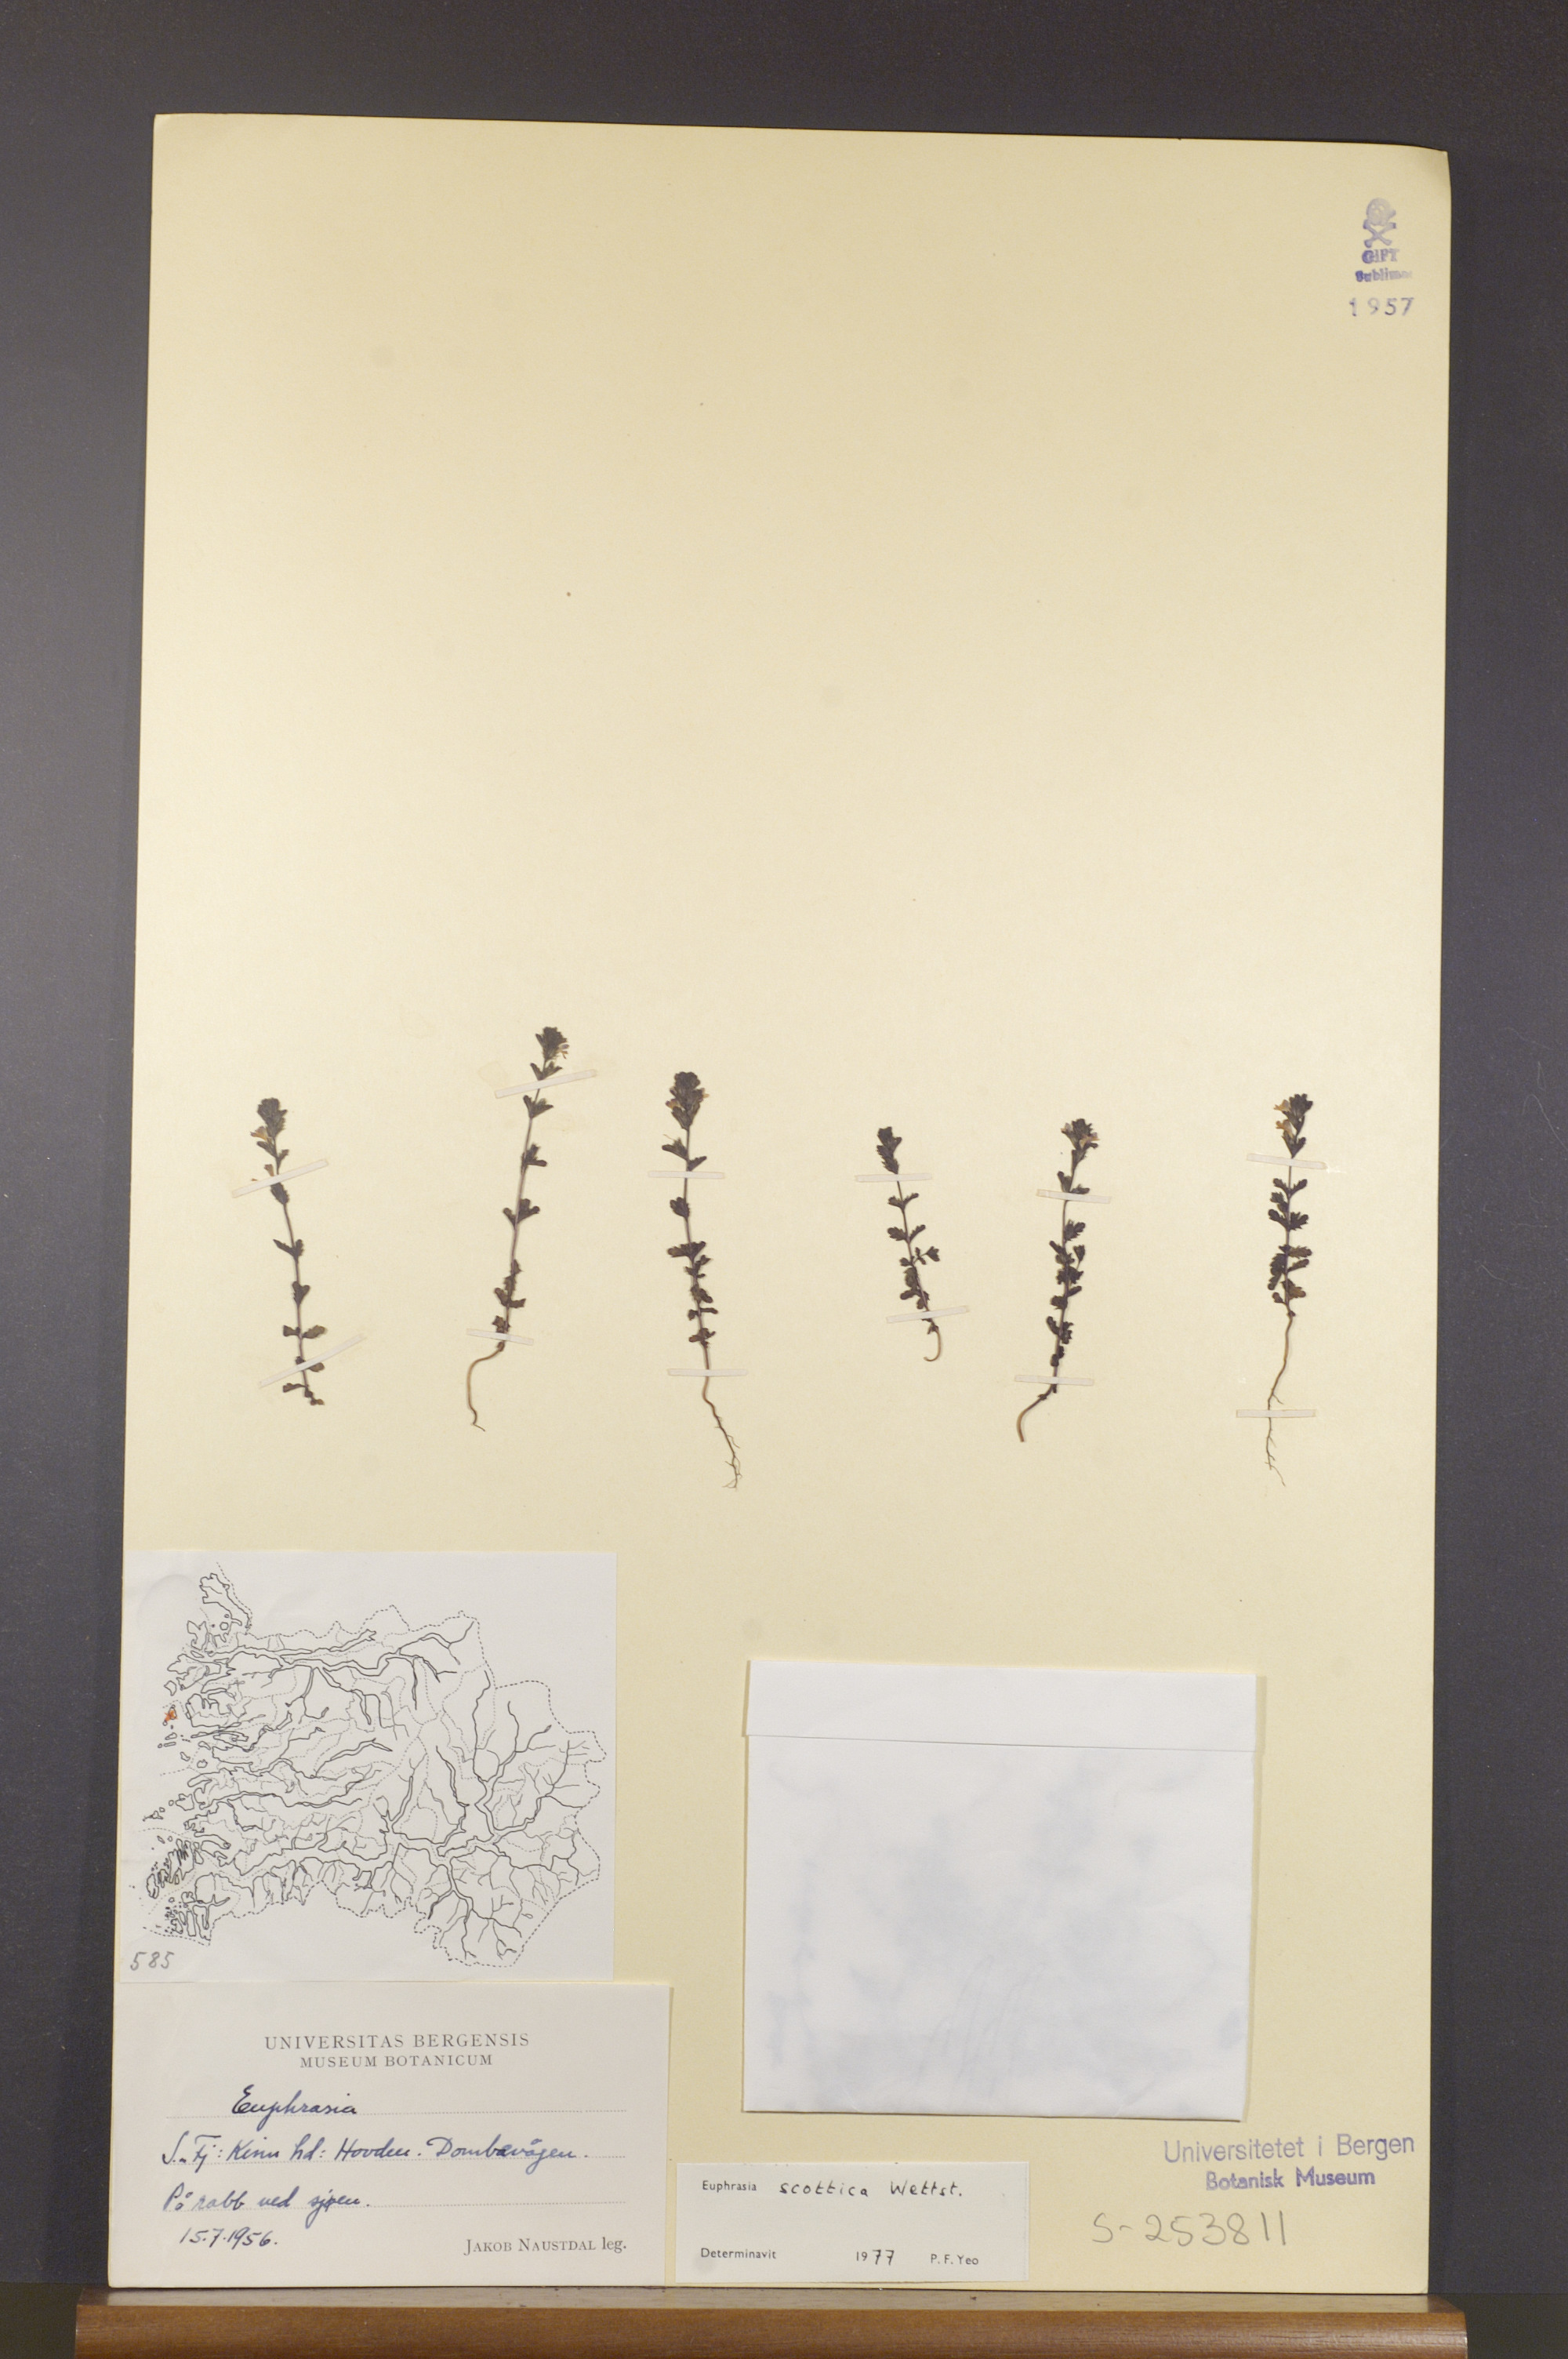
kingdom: Plantae
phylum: Tracheophyta
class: Magnoliopsida
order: Lamiales
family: Orobanchaceae
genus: Euphrasia
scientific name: Euphrasia scottica
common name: Slender scottish eyebright
